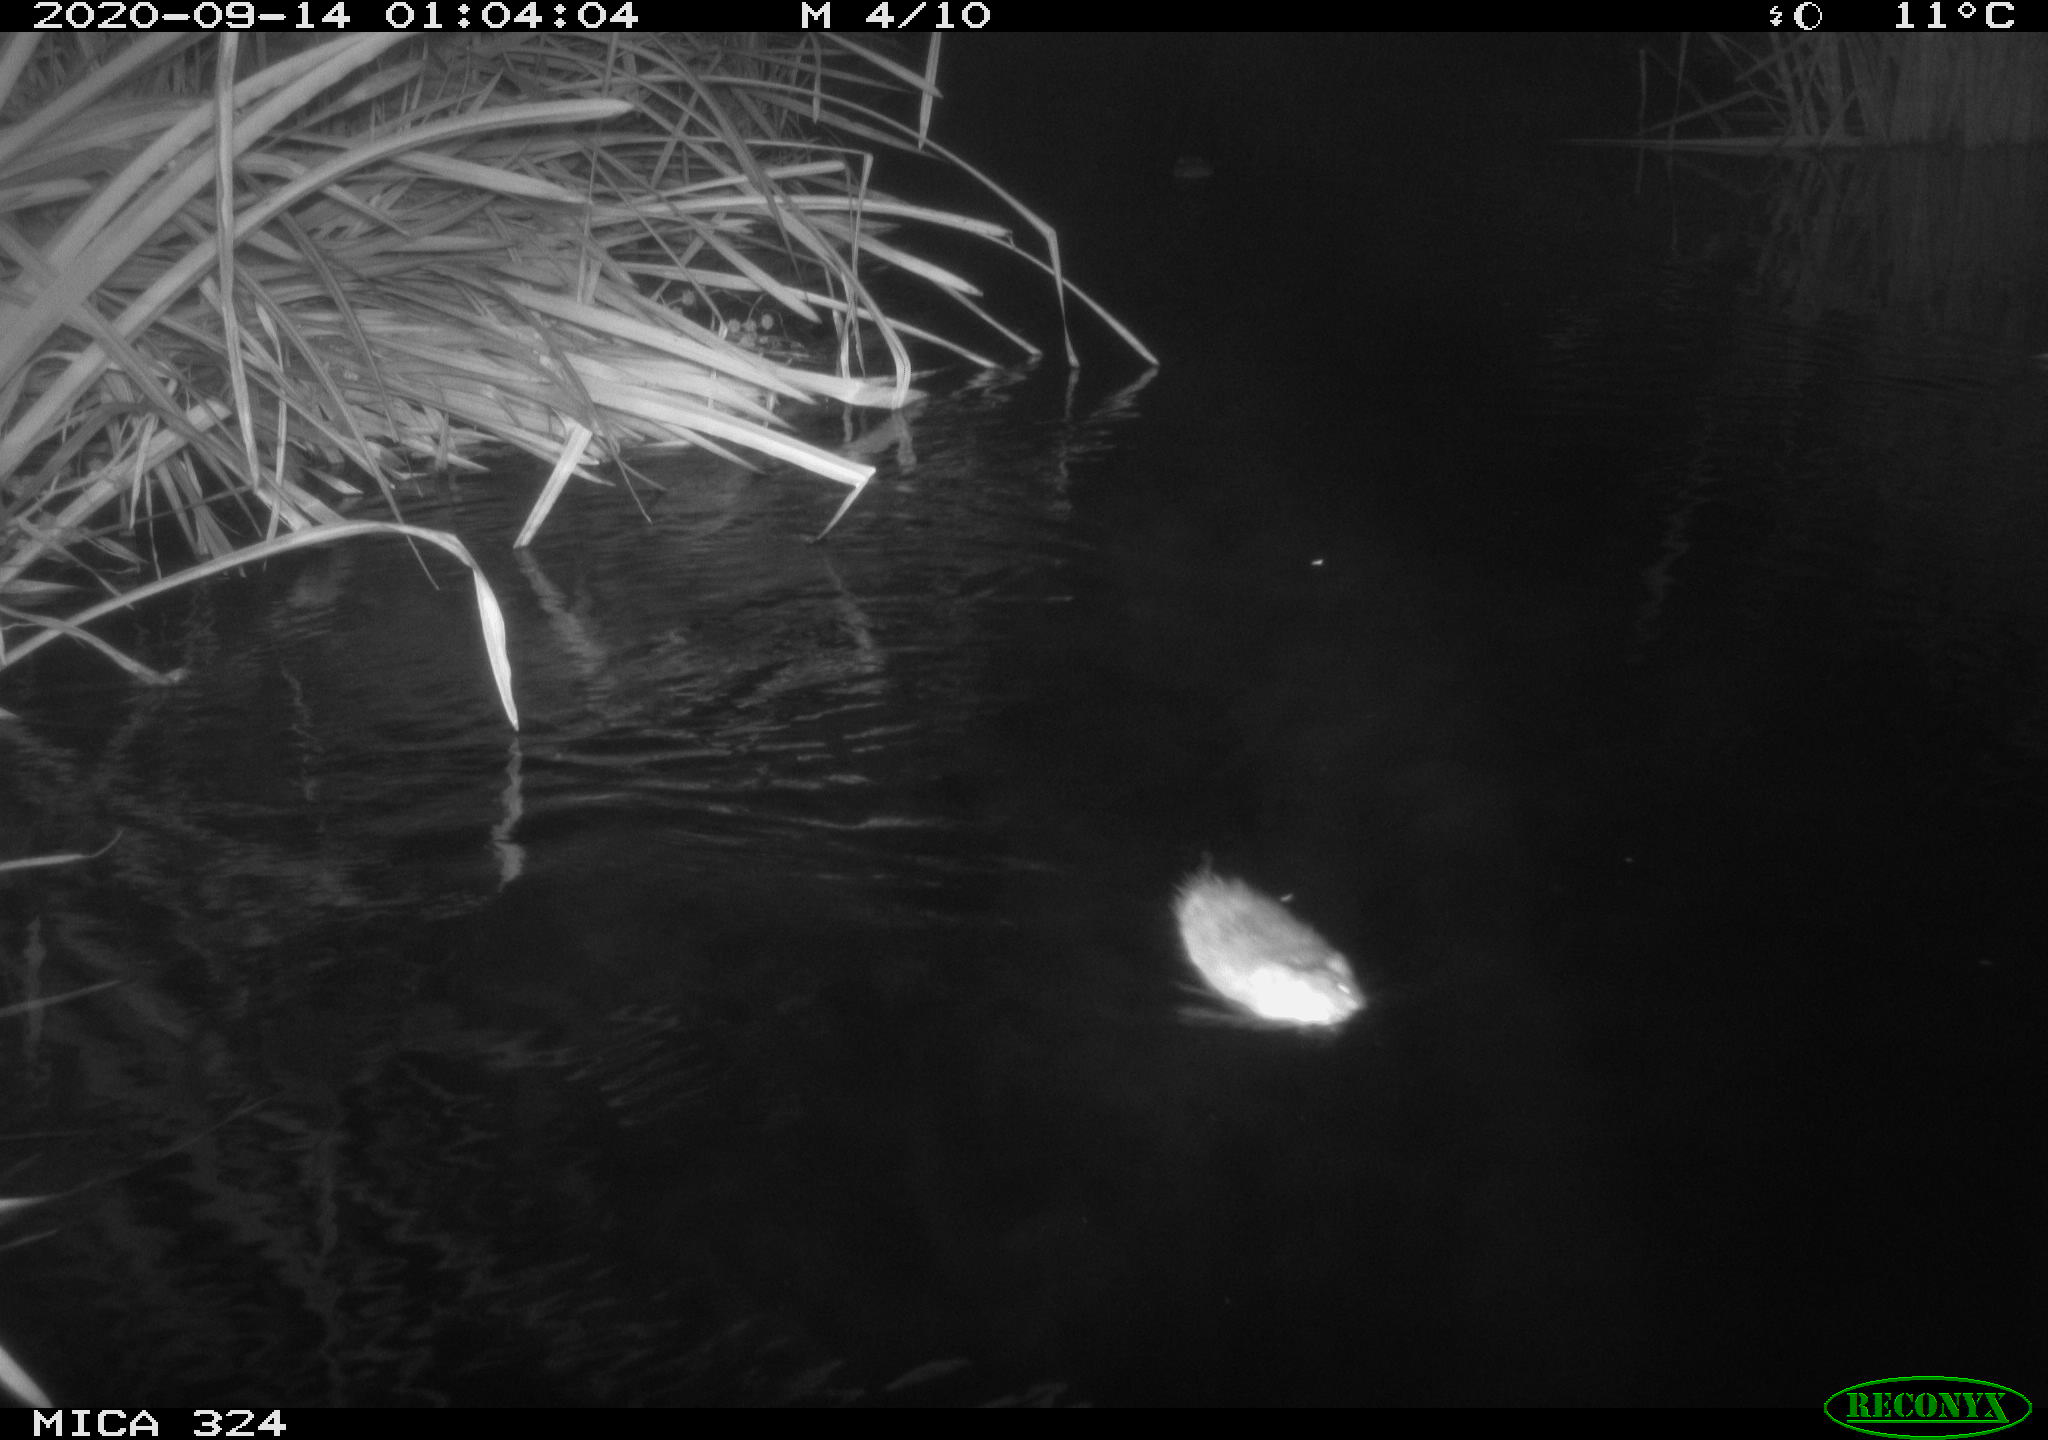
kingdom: Animalia
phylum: Chordata
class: Mammalia
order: Rodentia
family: Cricetidae
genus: Ondatra
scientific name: Ondatra zibethicus
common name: Muskrat
